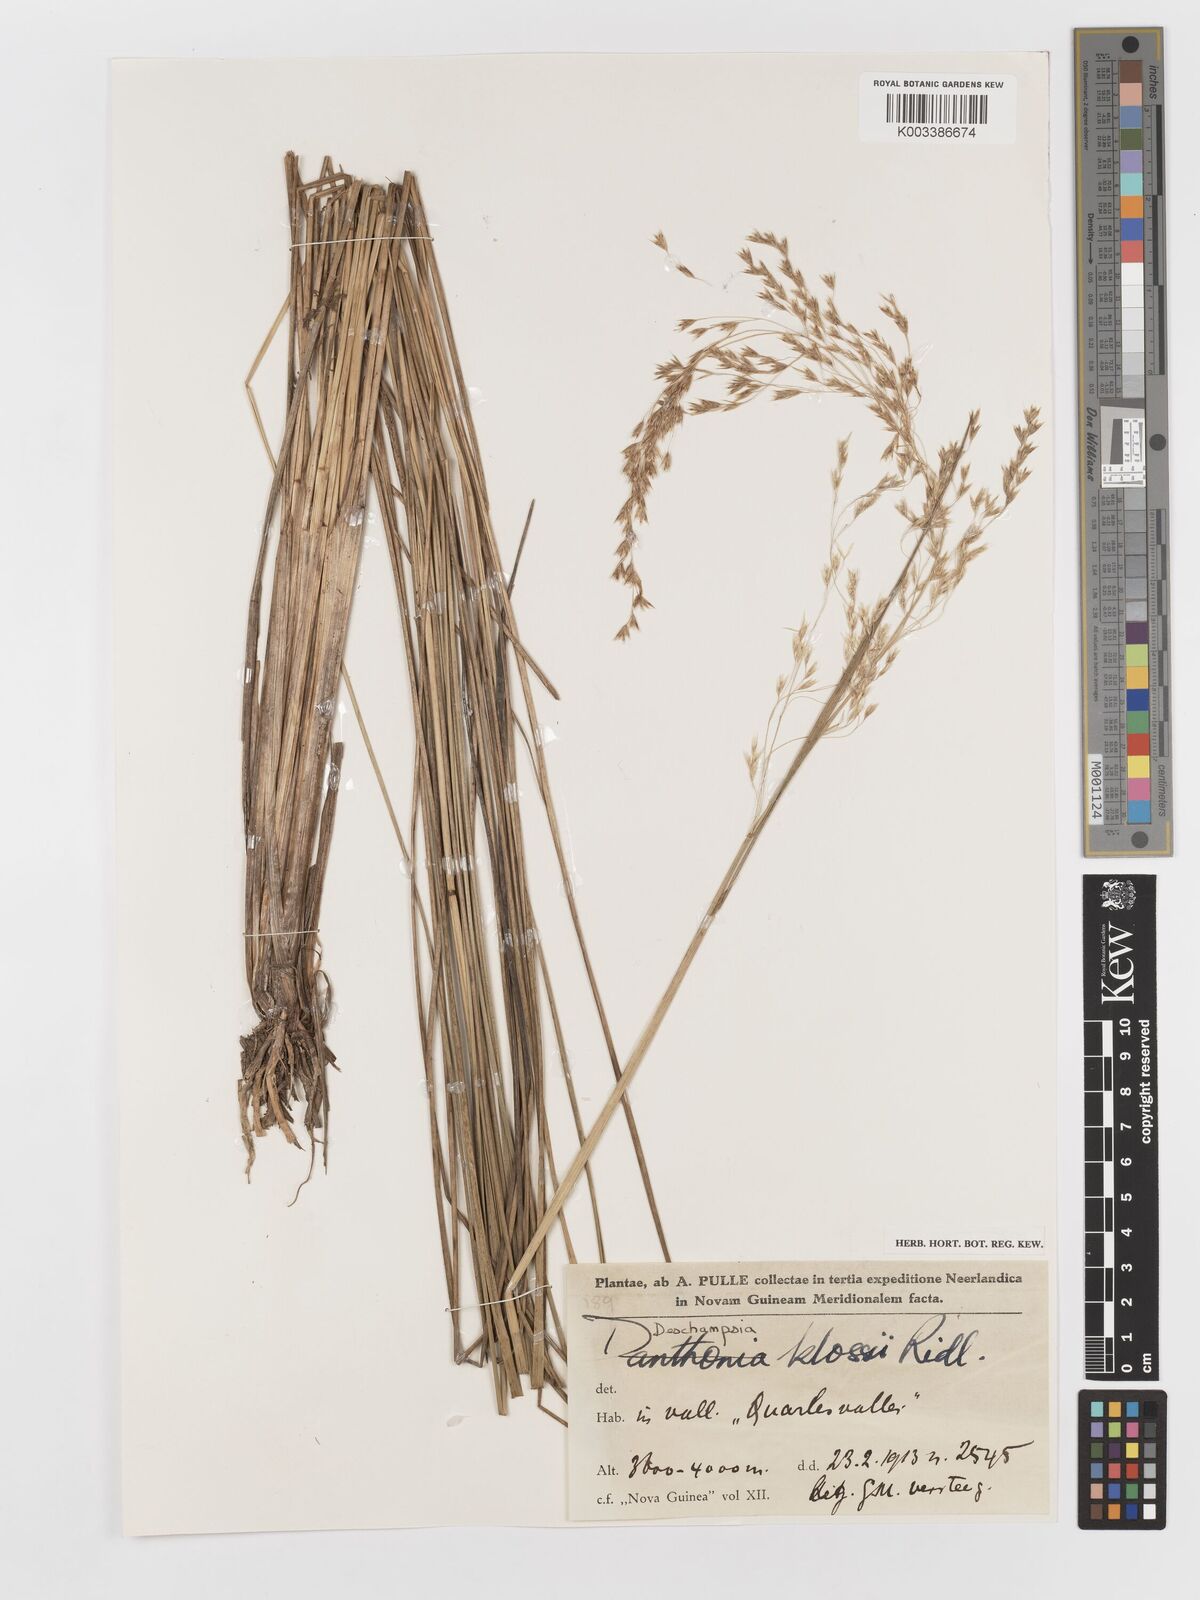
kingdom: Plantae
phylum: Tracheophyta
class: Liliopsida
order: Poales
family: Poaceae
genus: Deschampsia
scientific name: Deschampsia klossii
